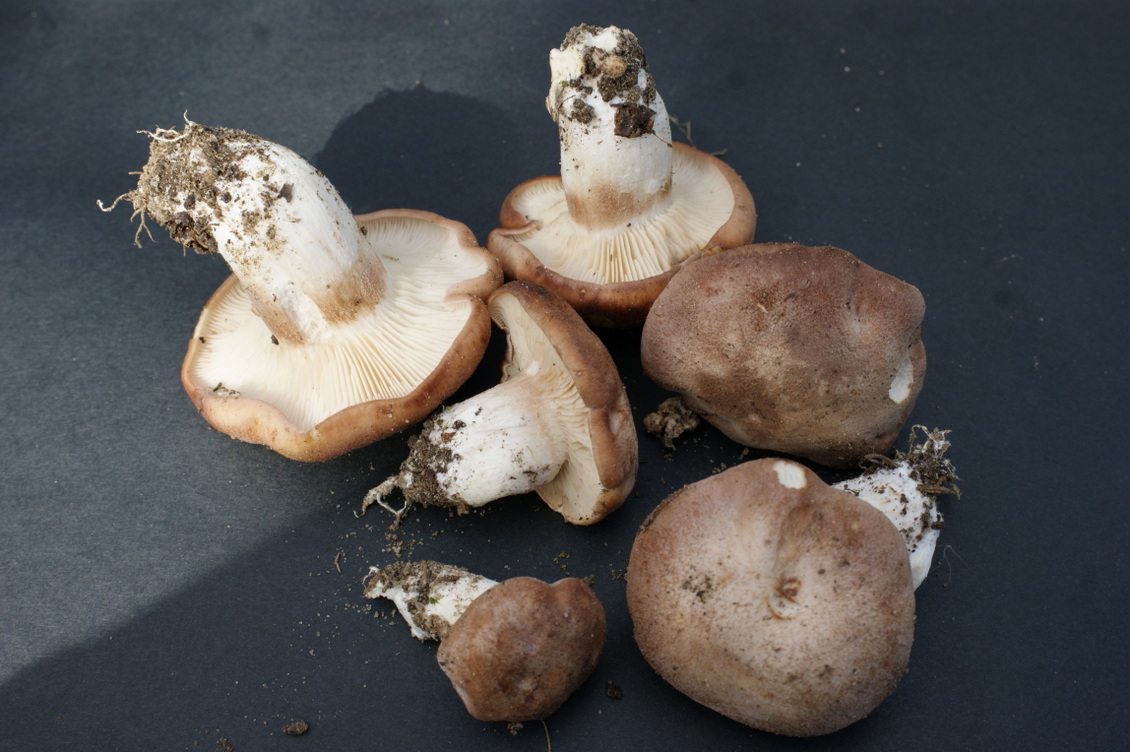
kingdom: Fungi
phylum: Basidiomycota
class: Agaricomycetes
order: Agaricales
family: Entolomataceae
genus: Clitopilus
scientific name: Clitopilus geminus
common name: kødfarvet troldhat
